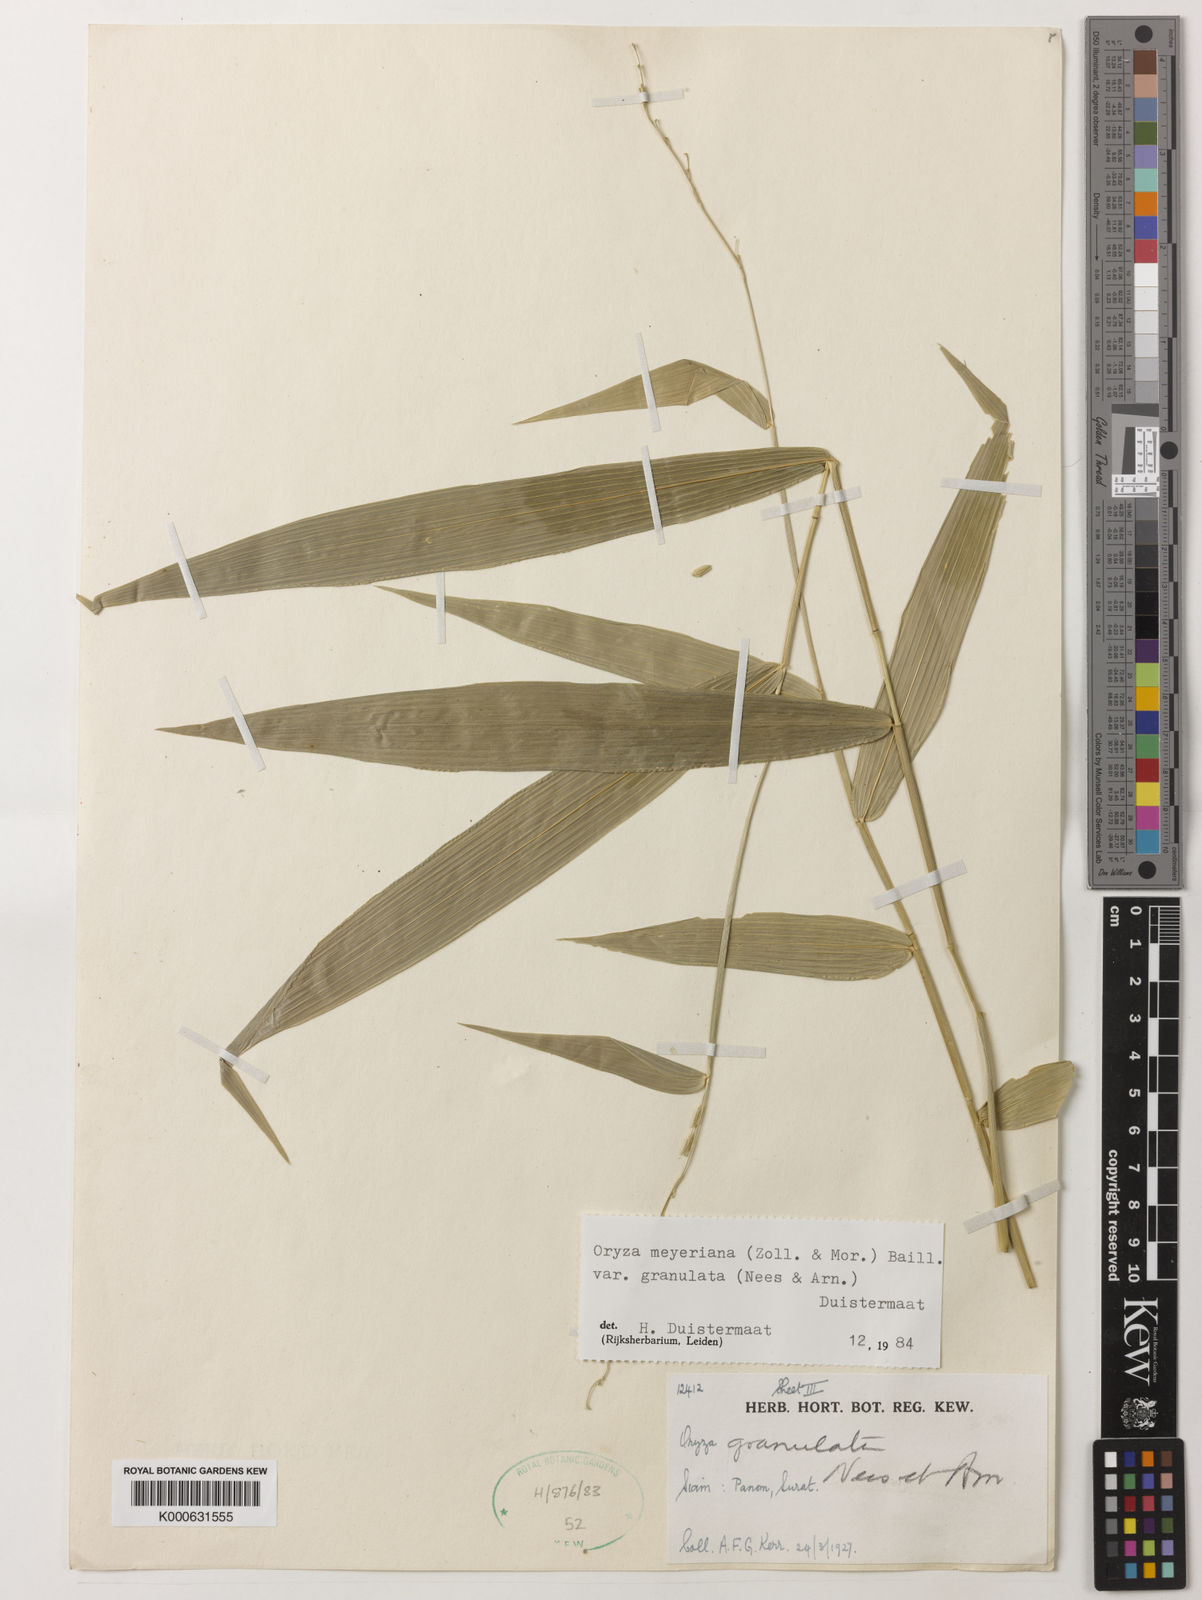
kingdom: Plantae
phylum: Tracheophyta
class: Liliopsida
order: Poales
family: Poaceae
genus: Oryza
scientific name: Oryza meyeriana
